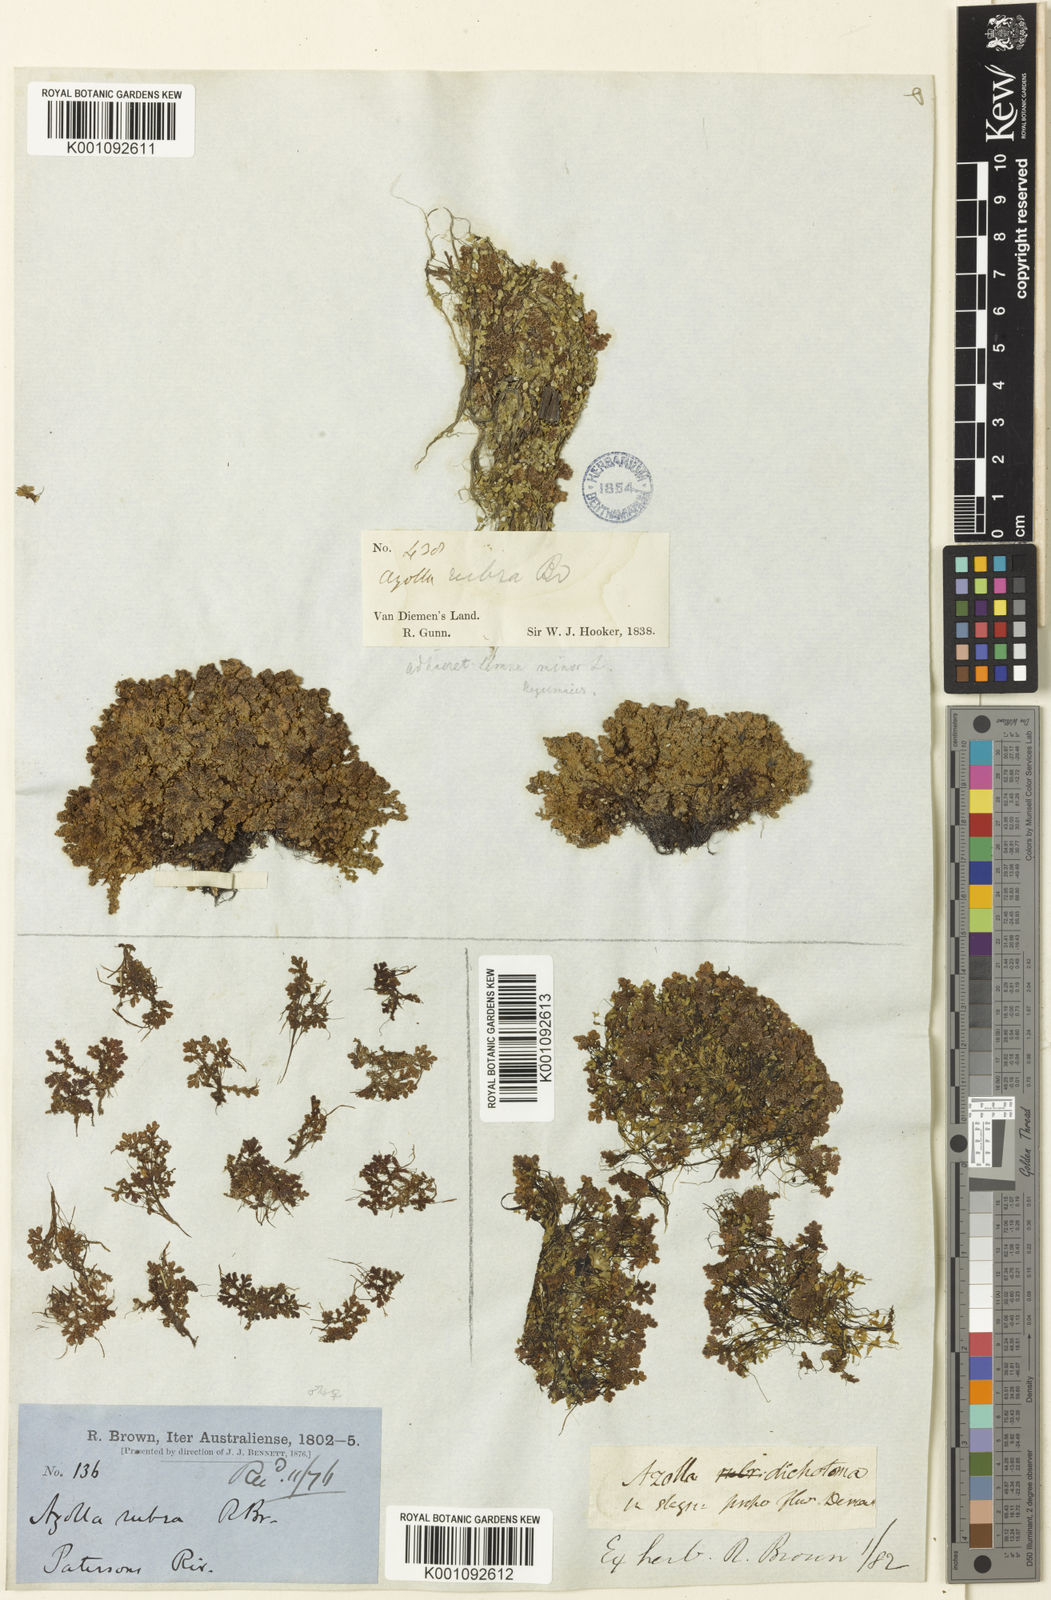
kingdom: Plantae
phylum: Tracheophyta
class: Polypodiopsida
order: Salviniales
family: Salviniaceae
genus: Azolla
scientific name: Azolla rubra
